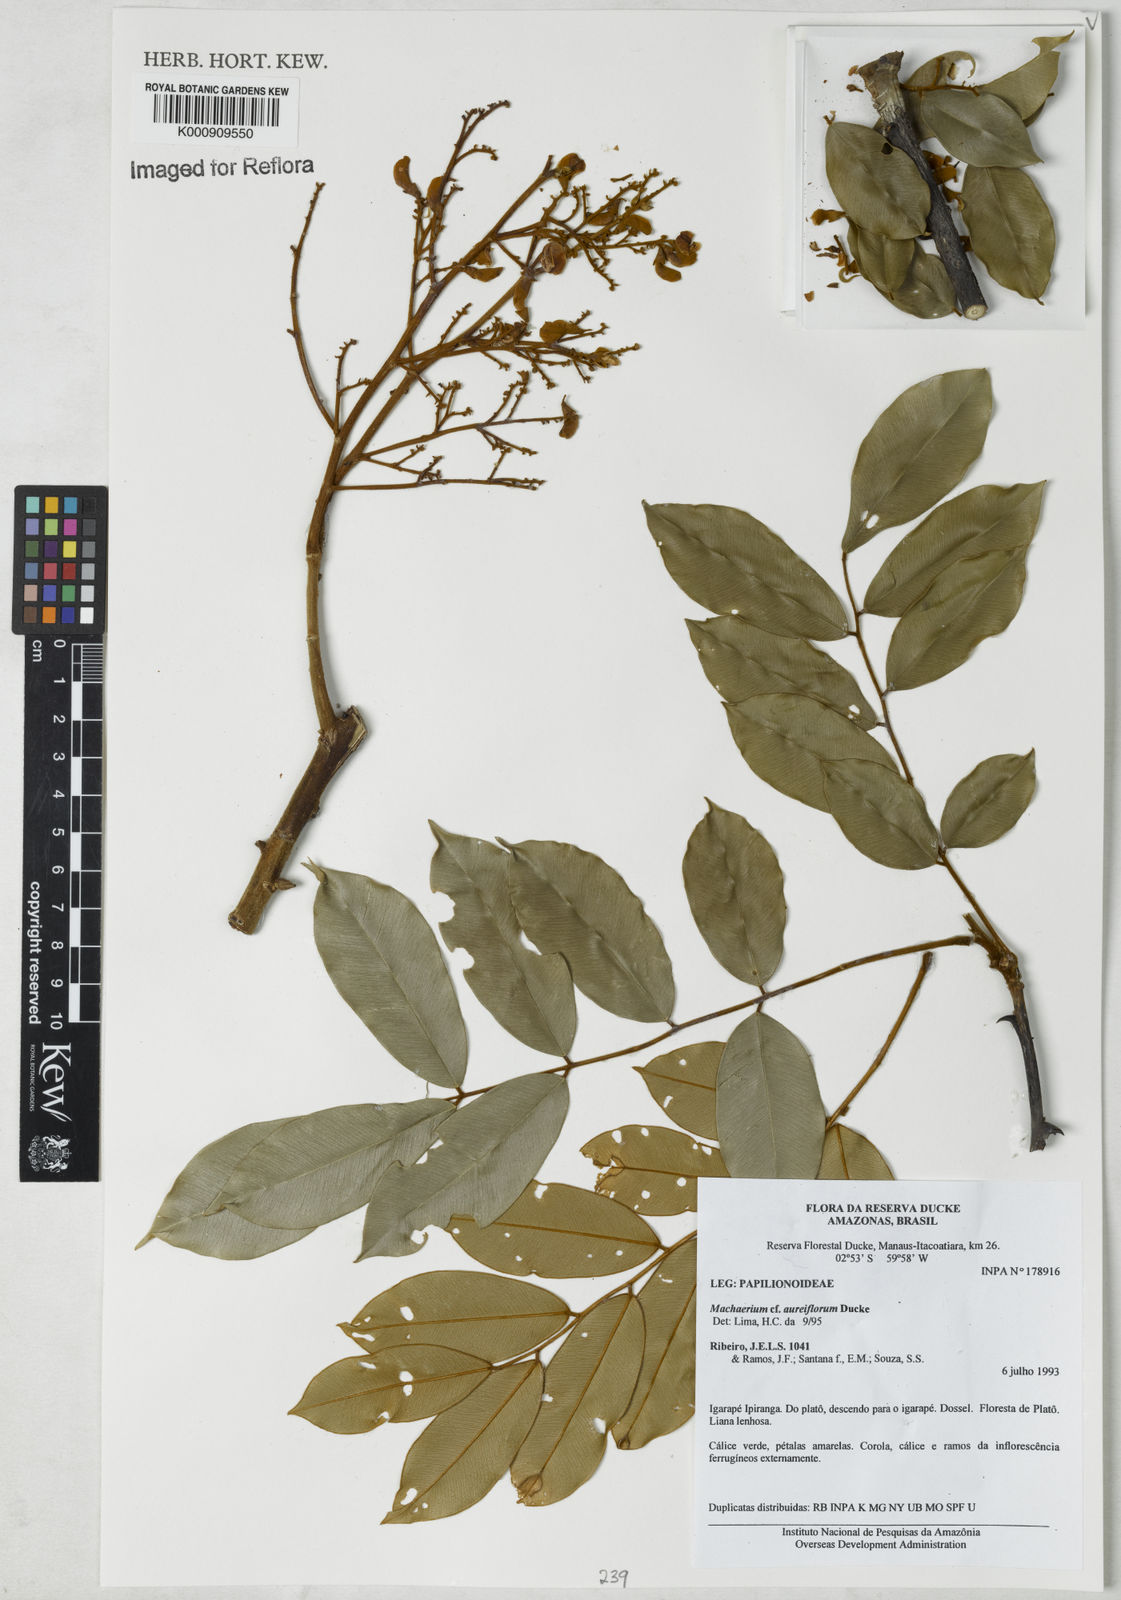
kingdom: Plantae
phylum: Tracheophyta
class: Magnoliopsida
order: Fabales
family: Fabaceae
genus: Machaerium
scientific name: Machaerium aureiflorum
